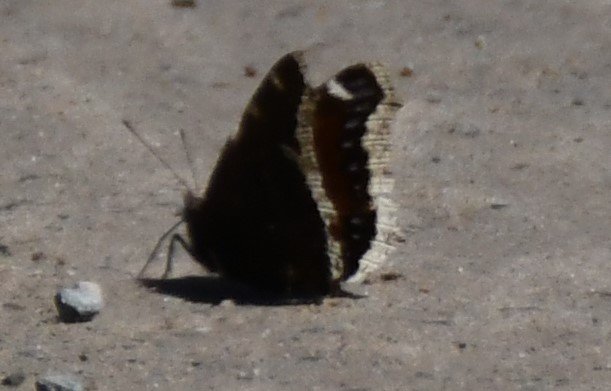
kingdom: Animalia
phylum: Arthropoda
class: Insecta
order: Lepidoptera
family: Nymphalidae
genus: Nymphalis
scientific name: Nymphalis antiopa
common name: Mourning Cloak
